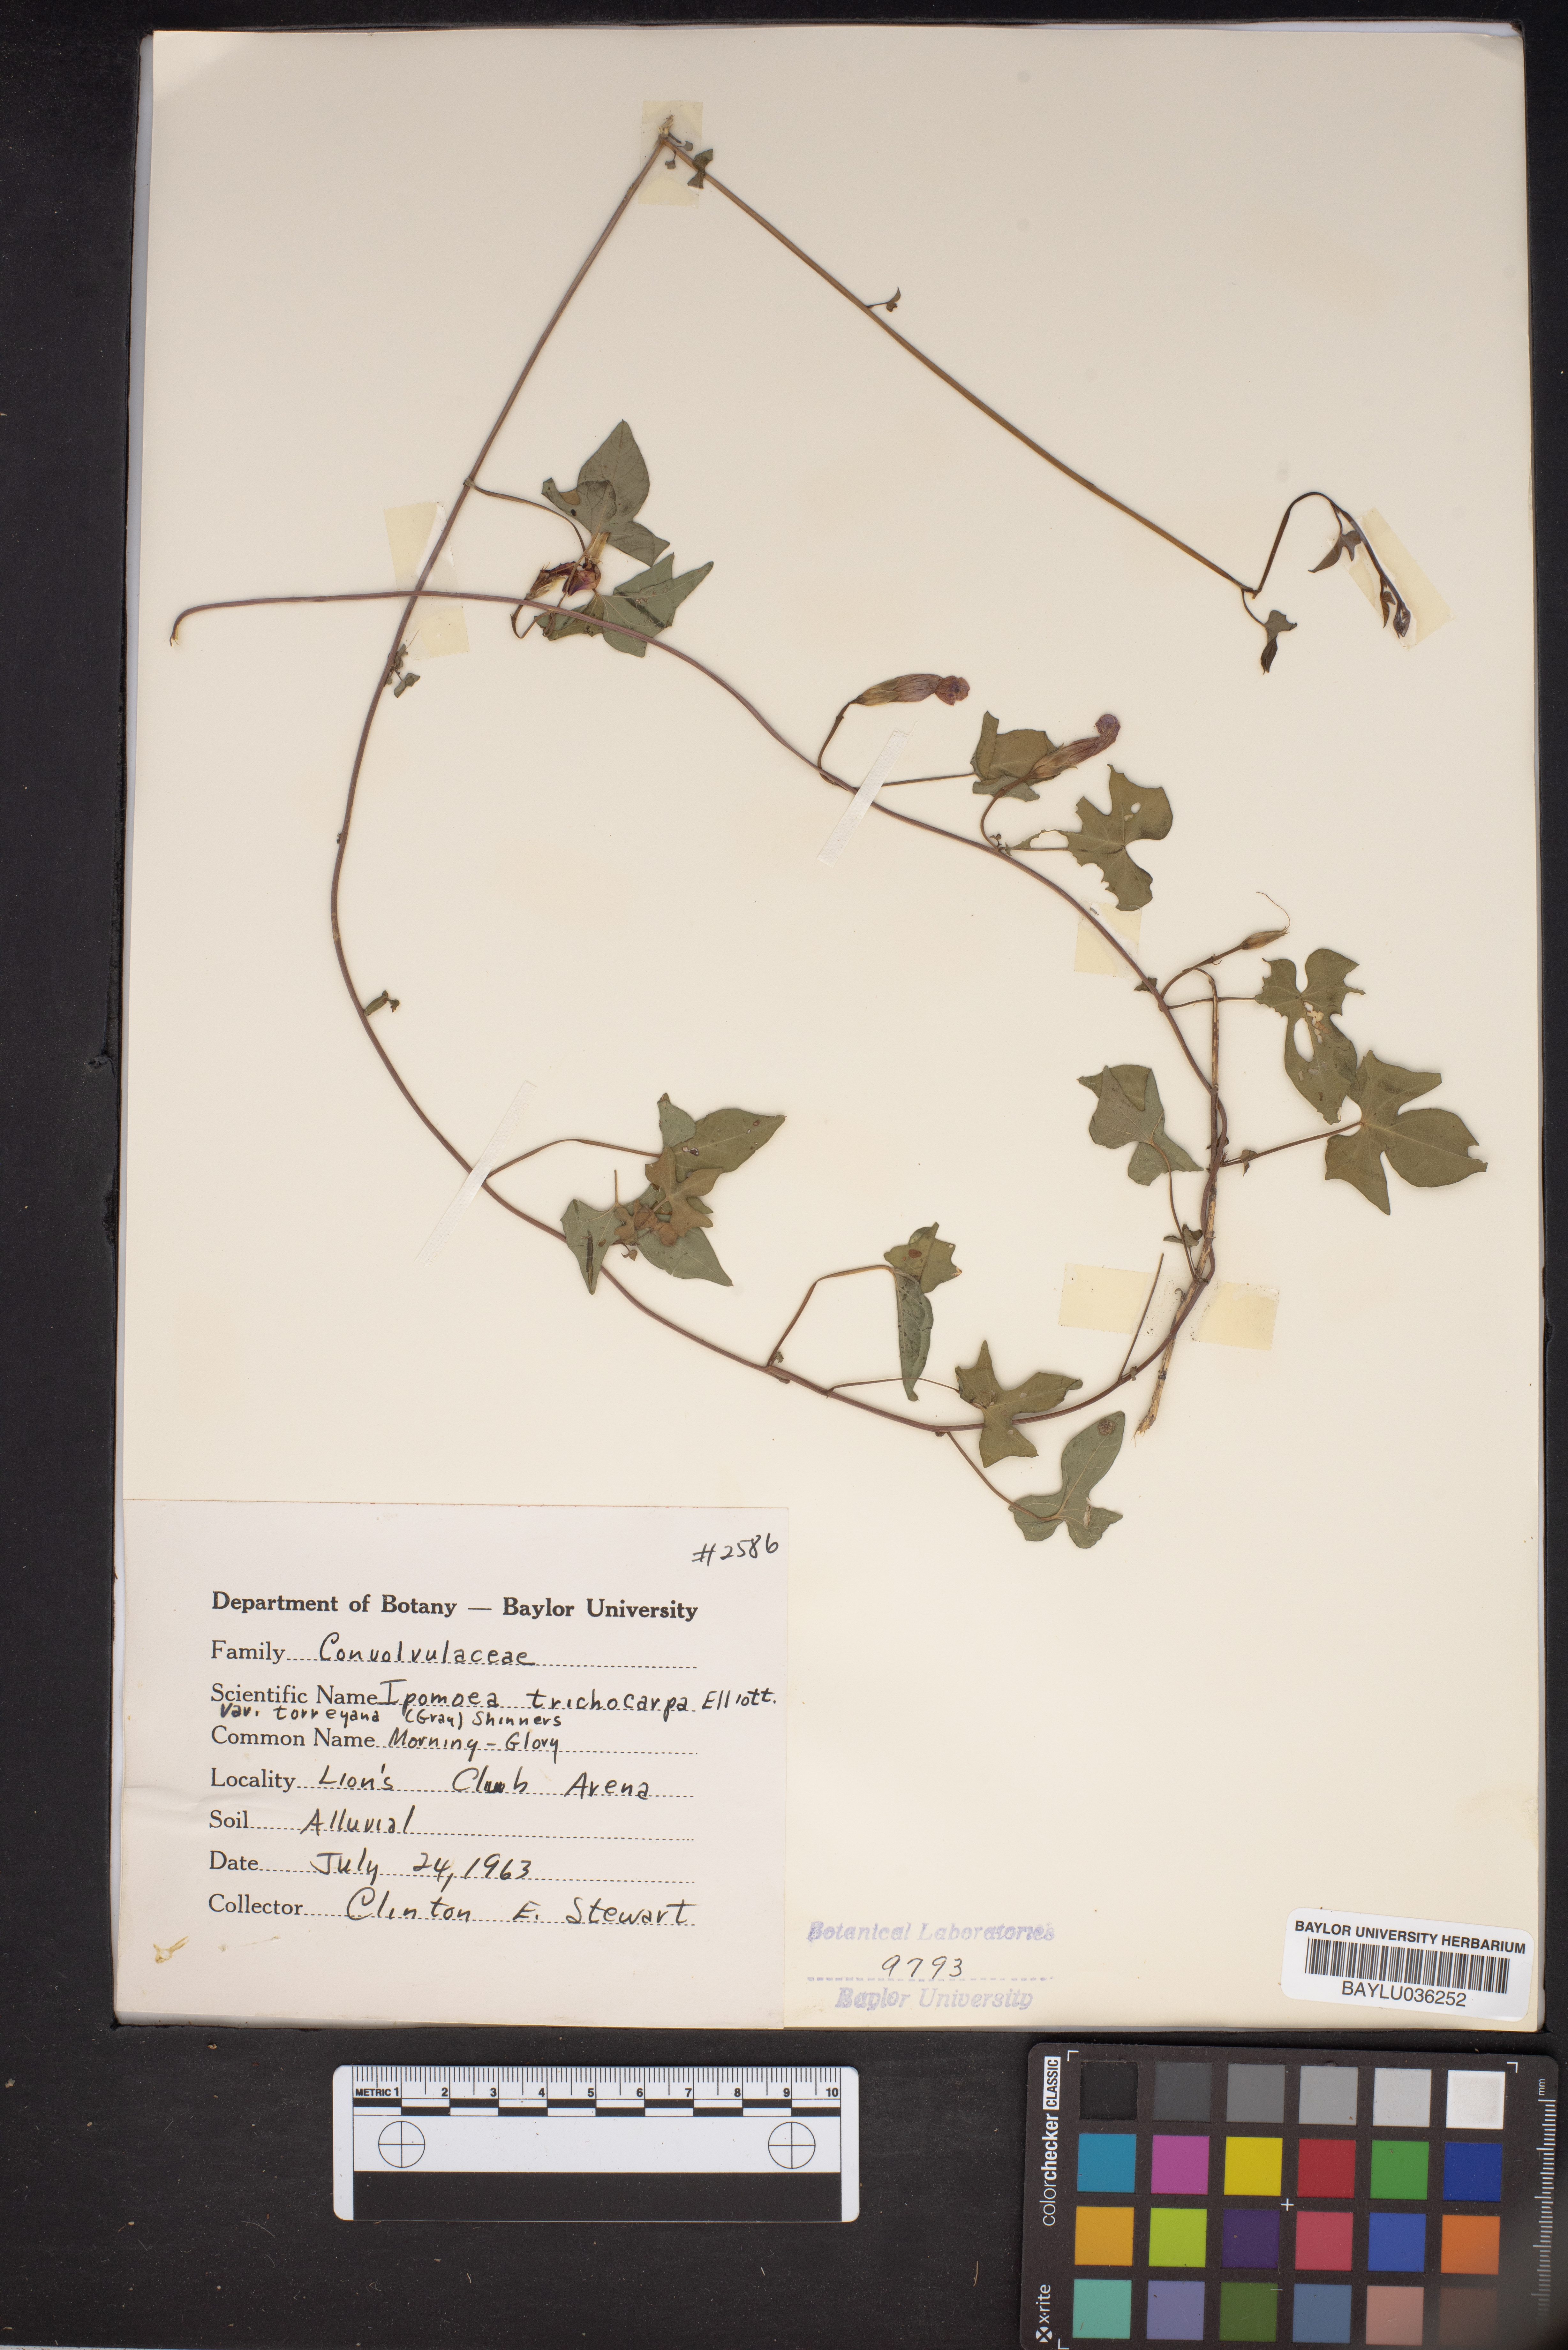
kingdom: Plantae
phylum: Tracheophyta
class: Magnoliopsida
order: Solanales
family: Convolvulaceae
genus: Ipomoea
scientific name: Ipomoea cordatotriloba
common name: Cotton morning glory
